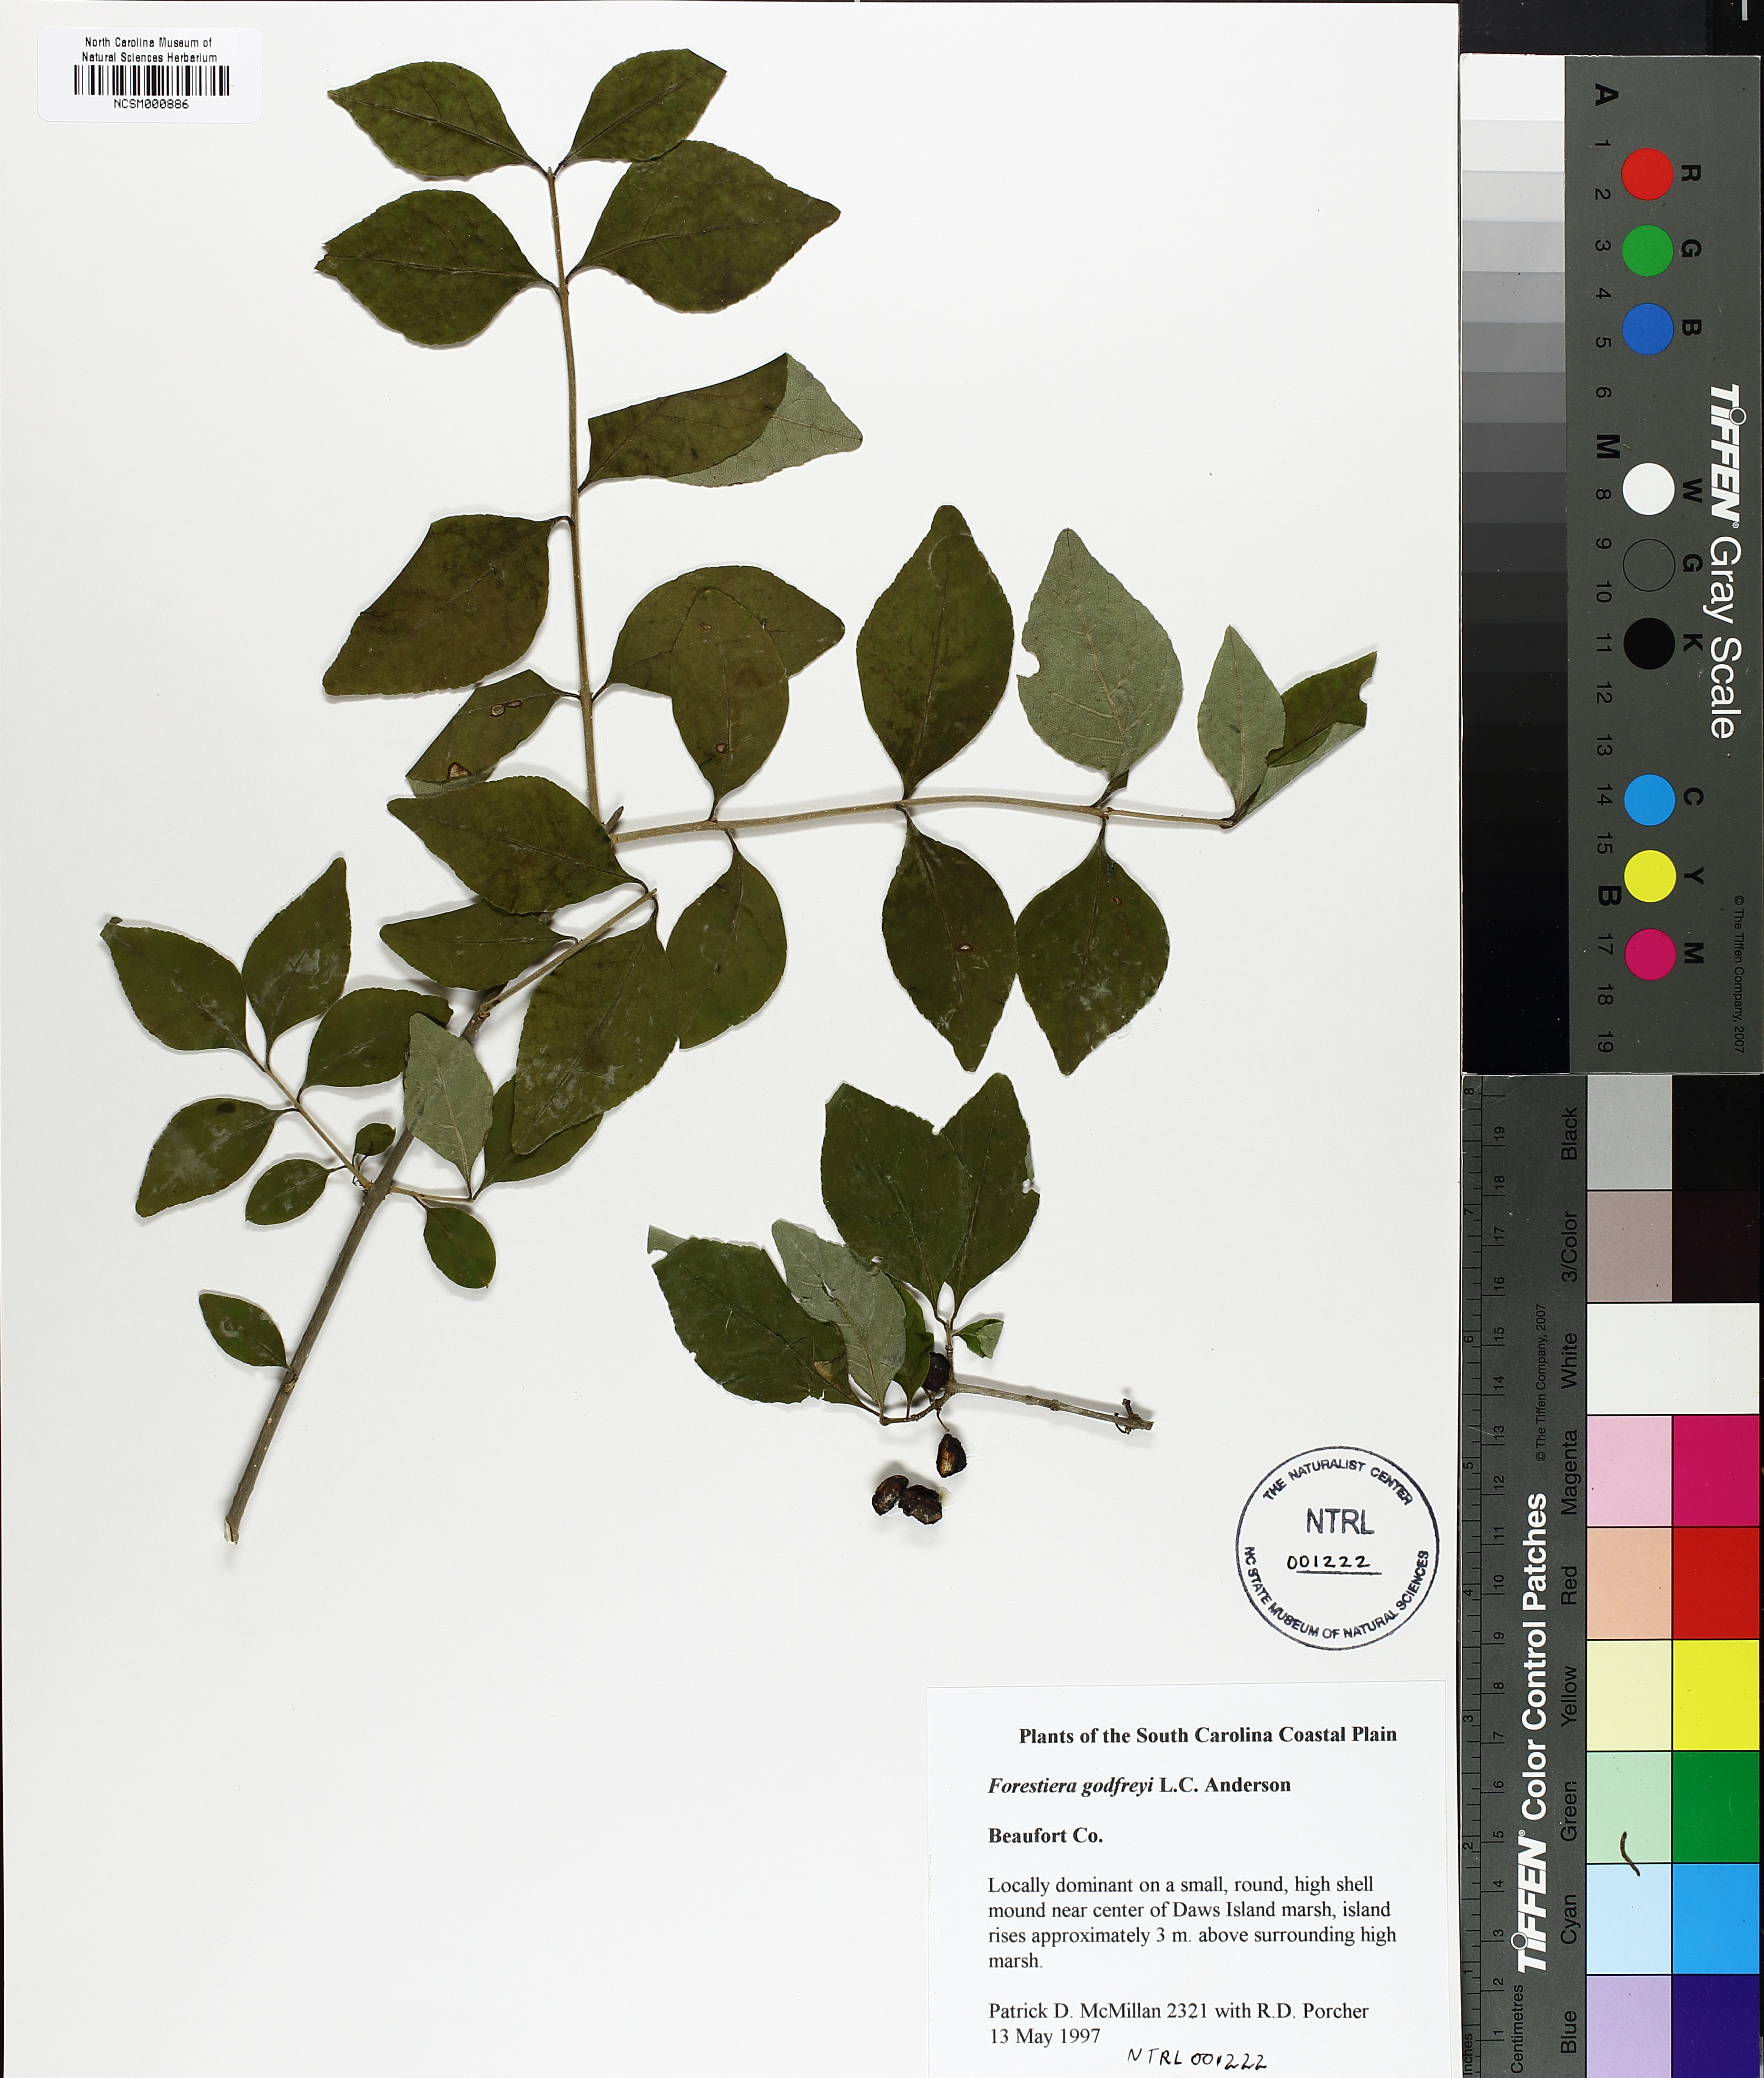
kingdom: Plantae
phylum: Tracheophyta
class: Magnoliopsida
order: Lamiales
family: Oleaceae
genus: Forestiera
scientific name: Forestiera godfreyi
